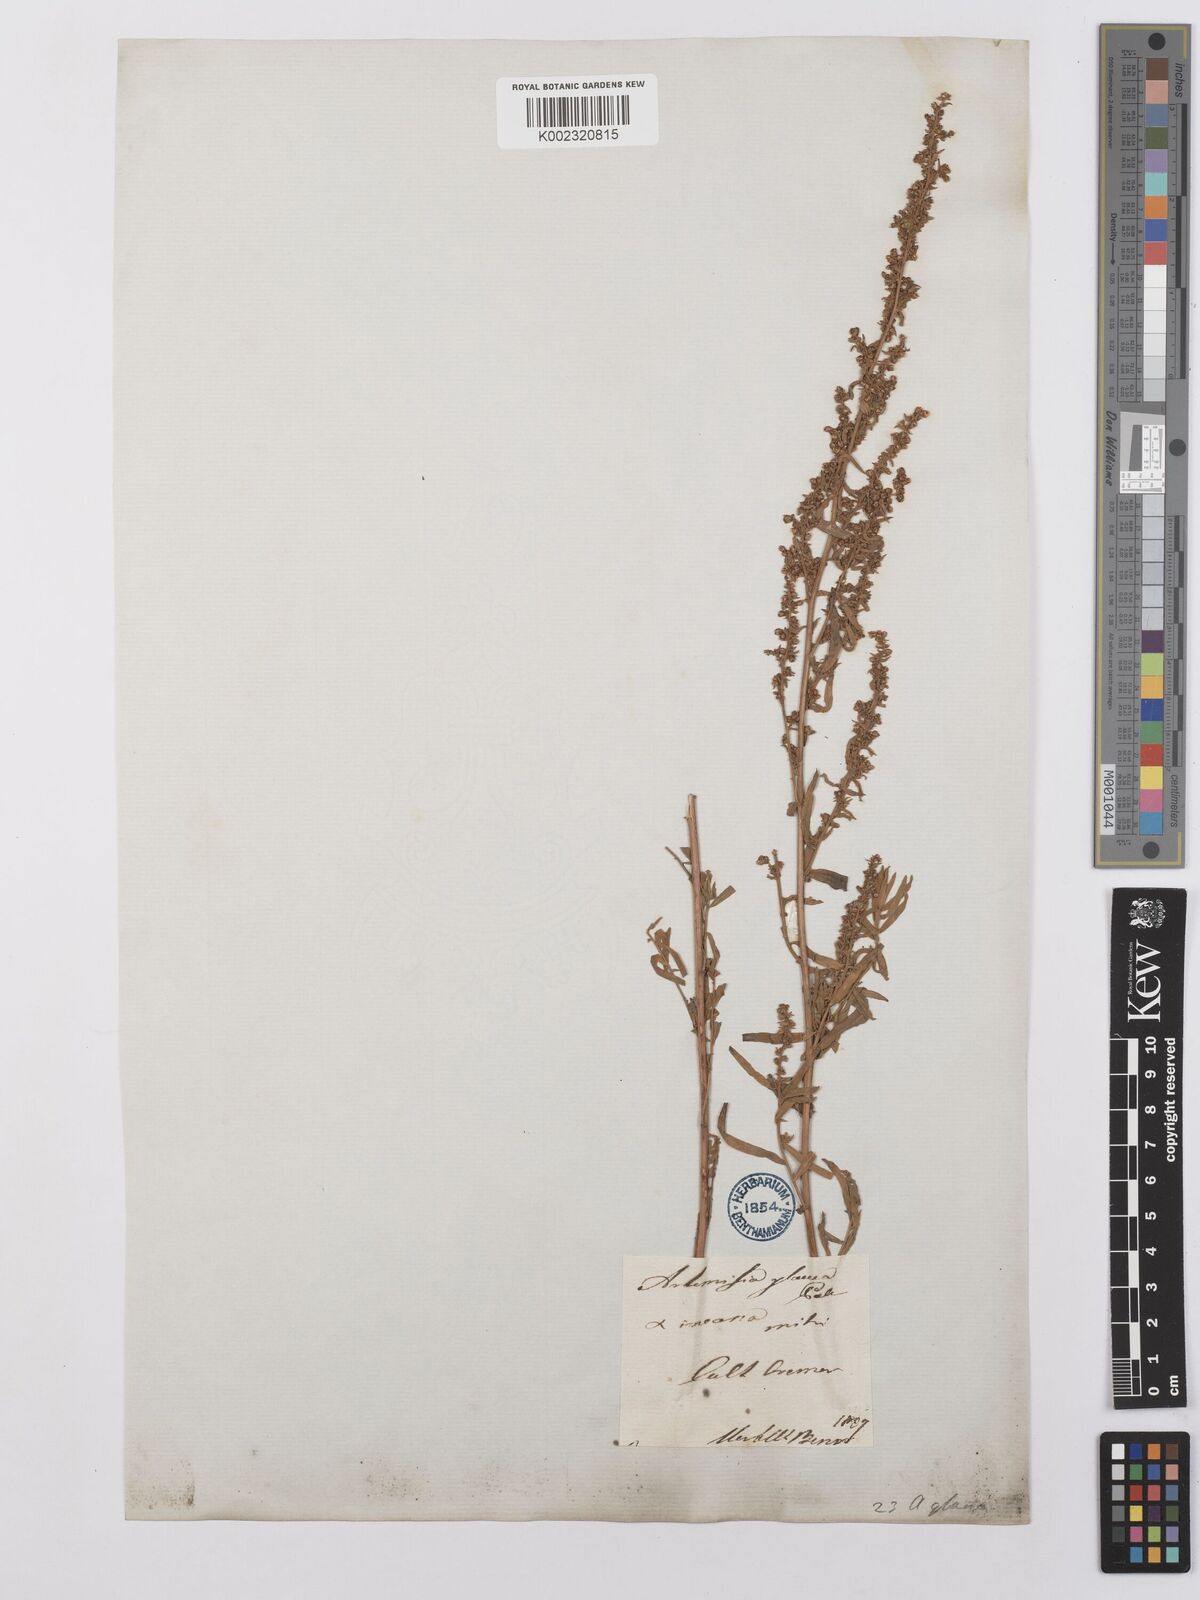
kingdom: Plantae
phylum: Tracheophyta
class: Magnoliopsida
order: Asterales
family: Asteraceae
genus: Artemisia
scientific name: Artemisia glauca
